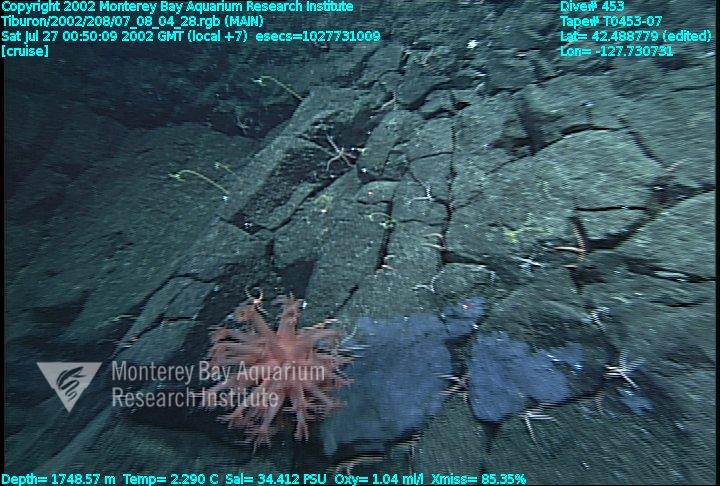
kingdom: Animalia
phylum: Porifera
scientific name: Porifera
